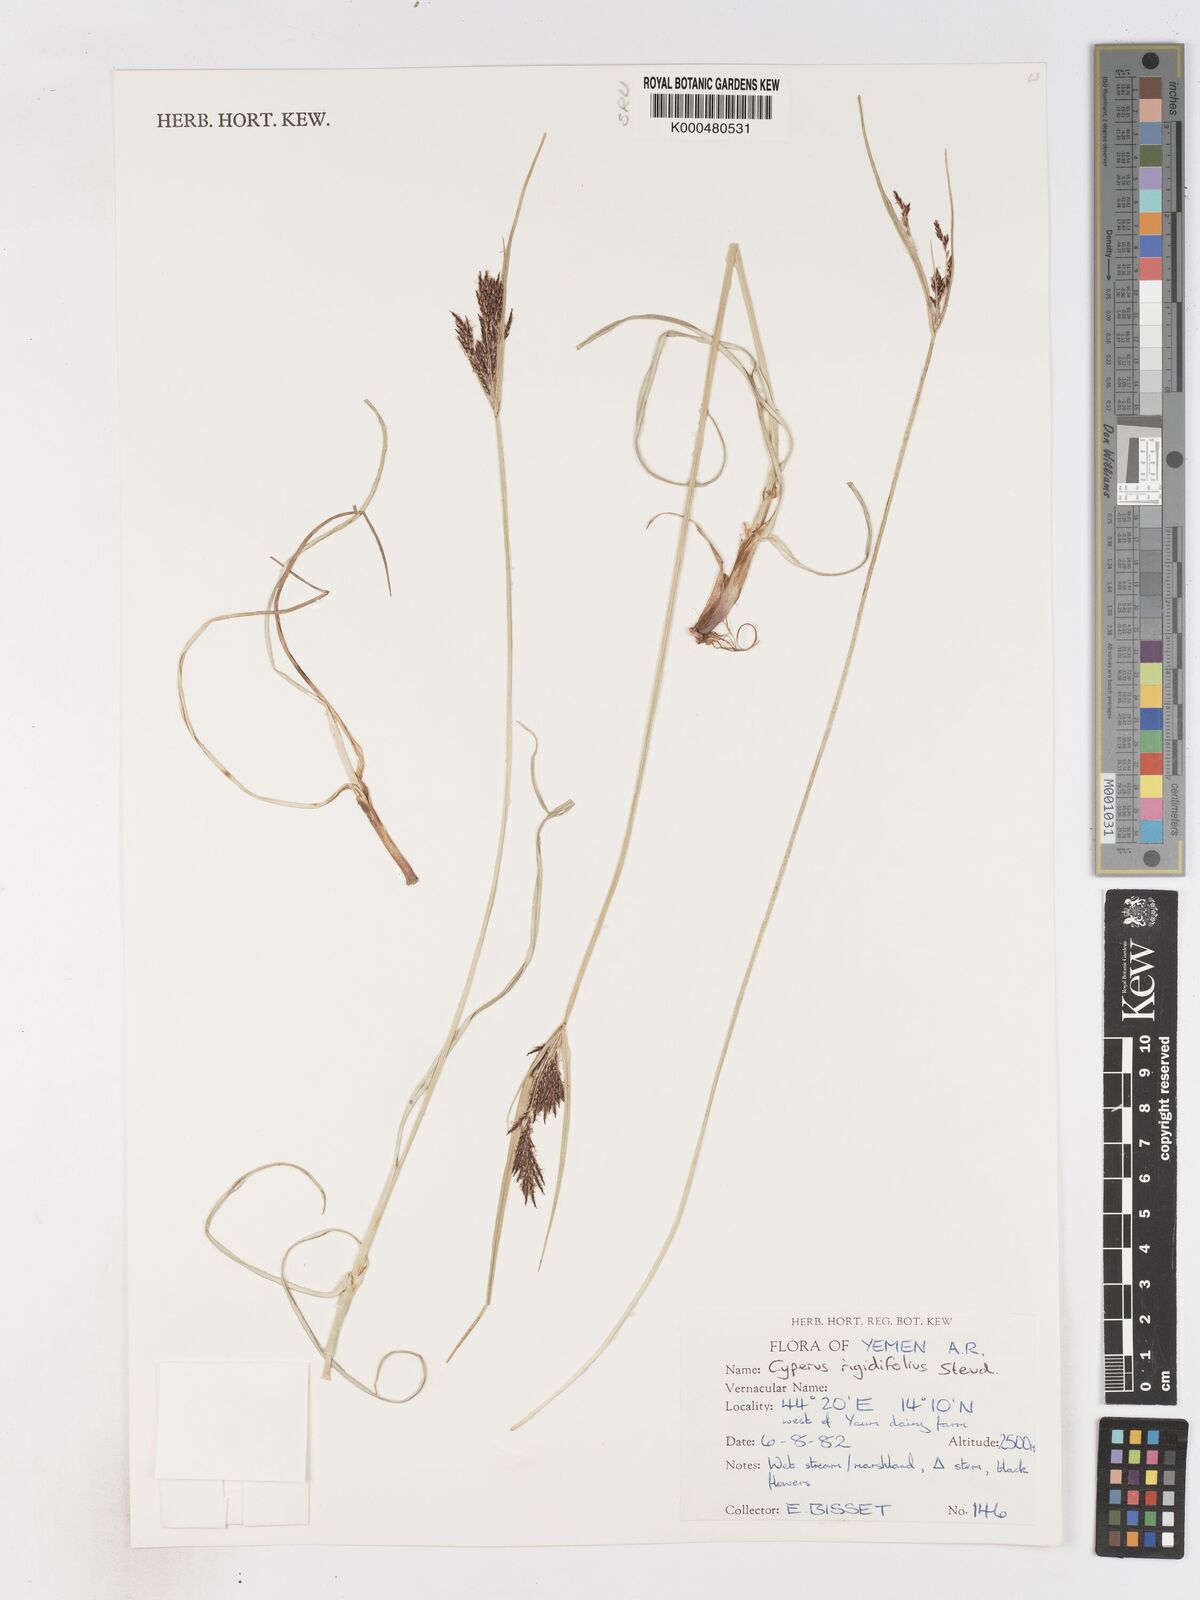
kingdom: Plantae
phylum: Tracheophyta
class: Liliopsida
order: Poales
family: Cyperaceae
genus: Cyperus
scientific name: Cyperus rigidifolius
